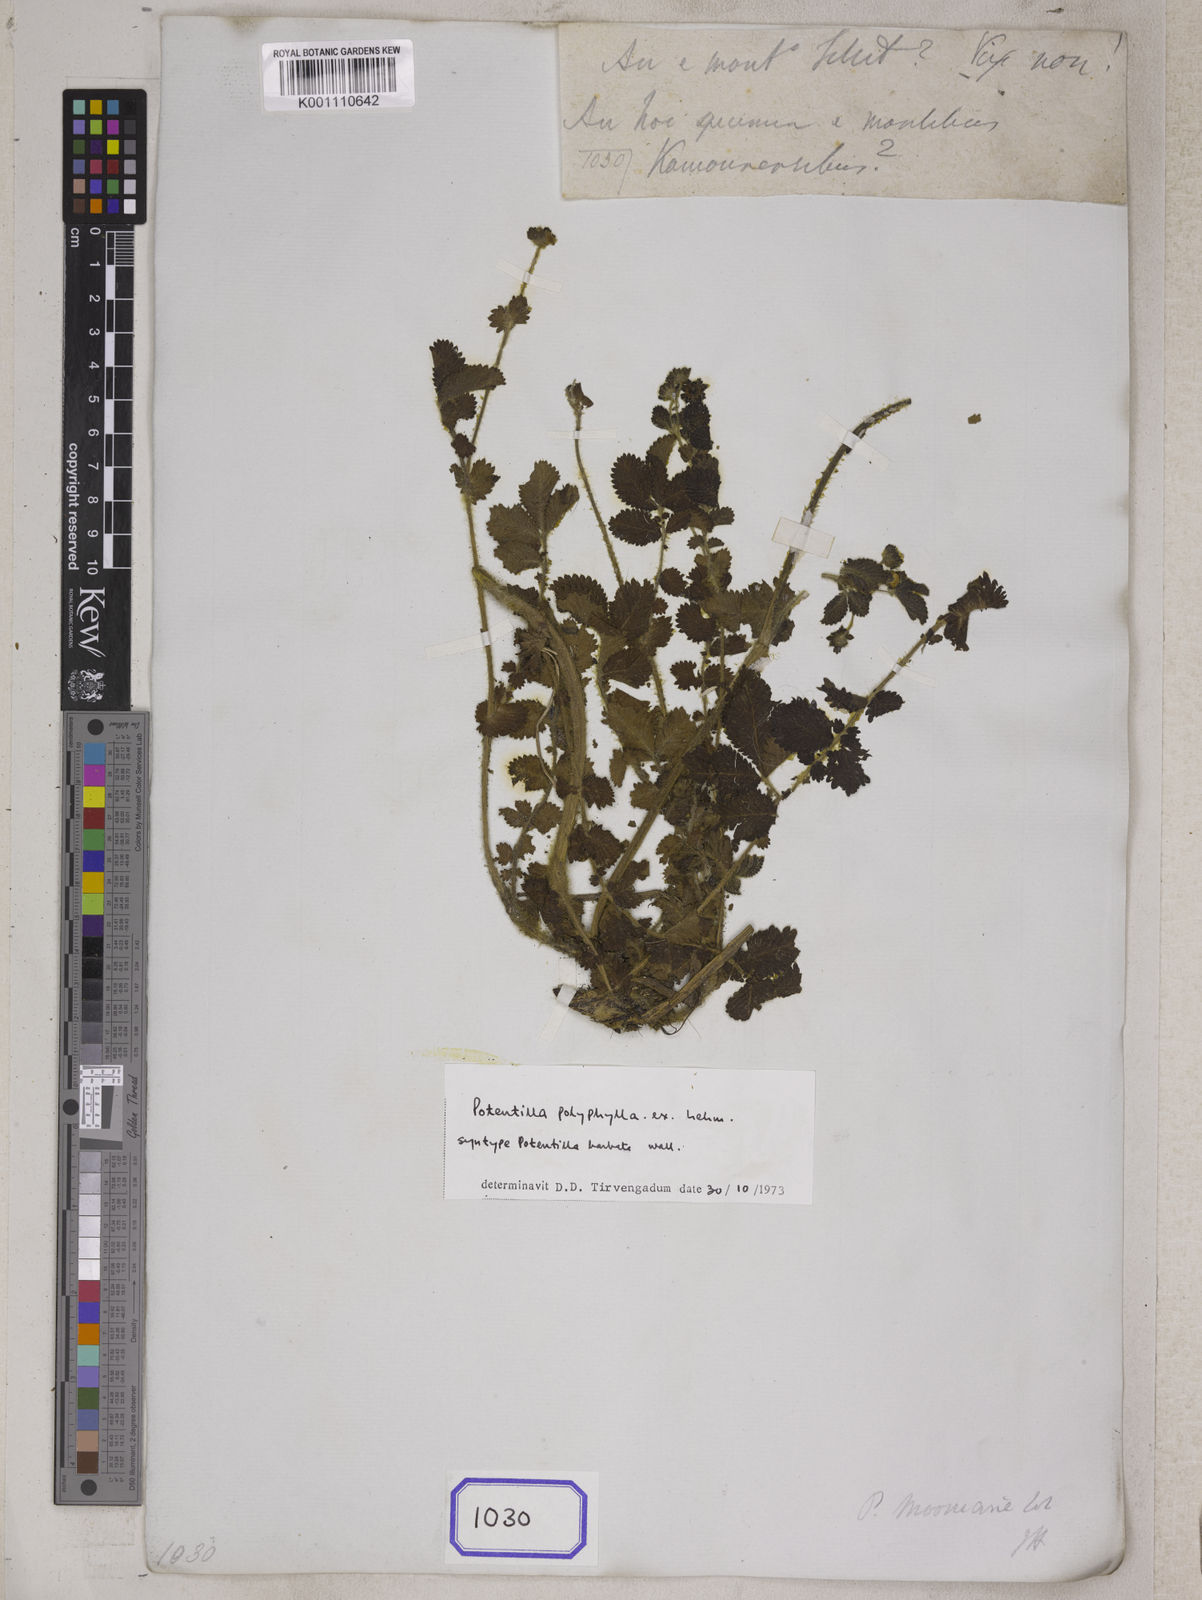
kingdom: Plantae
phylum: Tracheophyta
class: Magnoliopsida
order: Rosales
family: Rosaceae
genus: Argentina
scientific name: Argentina polyphylla
